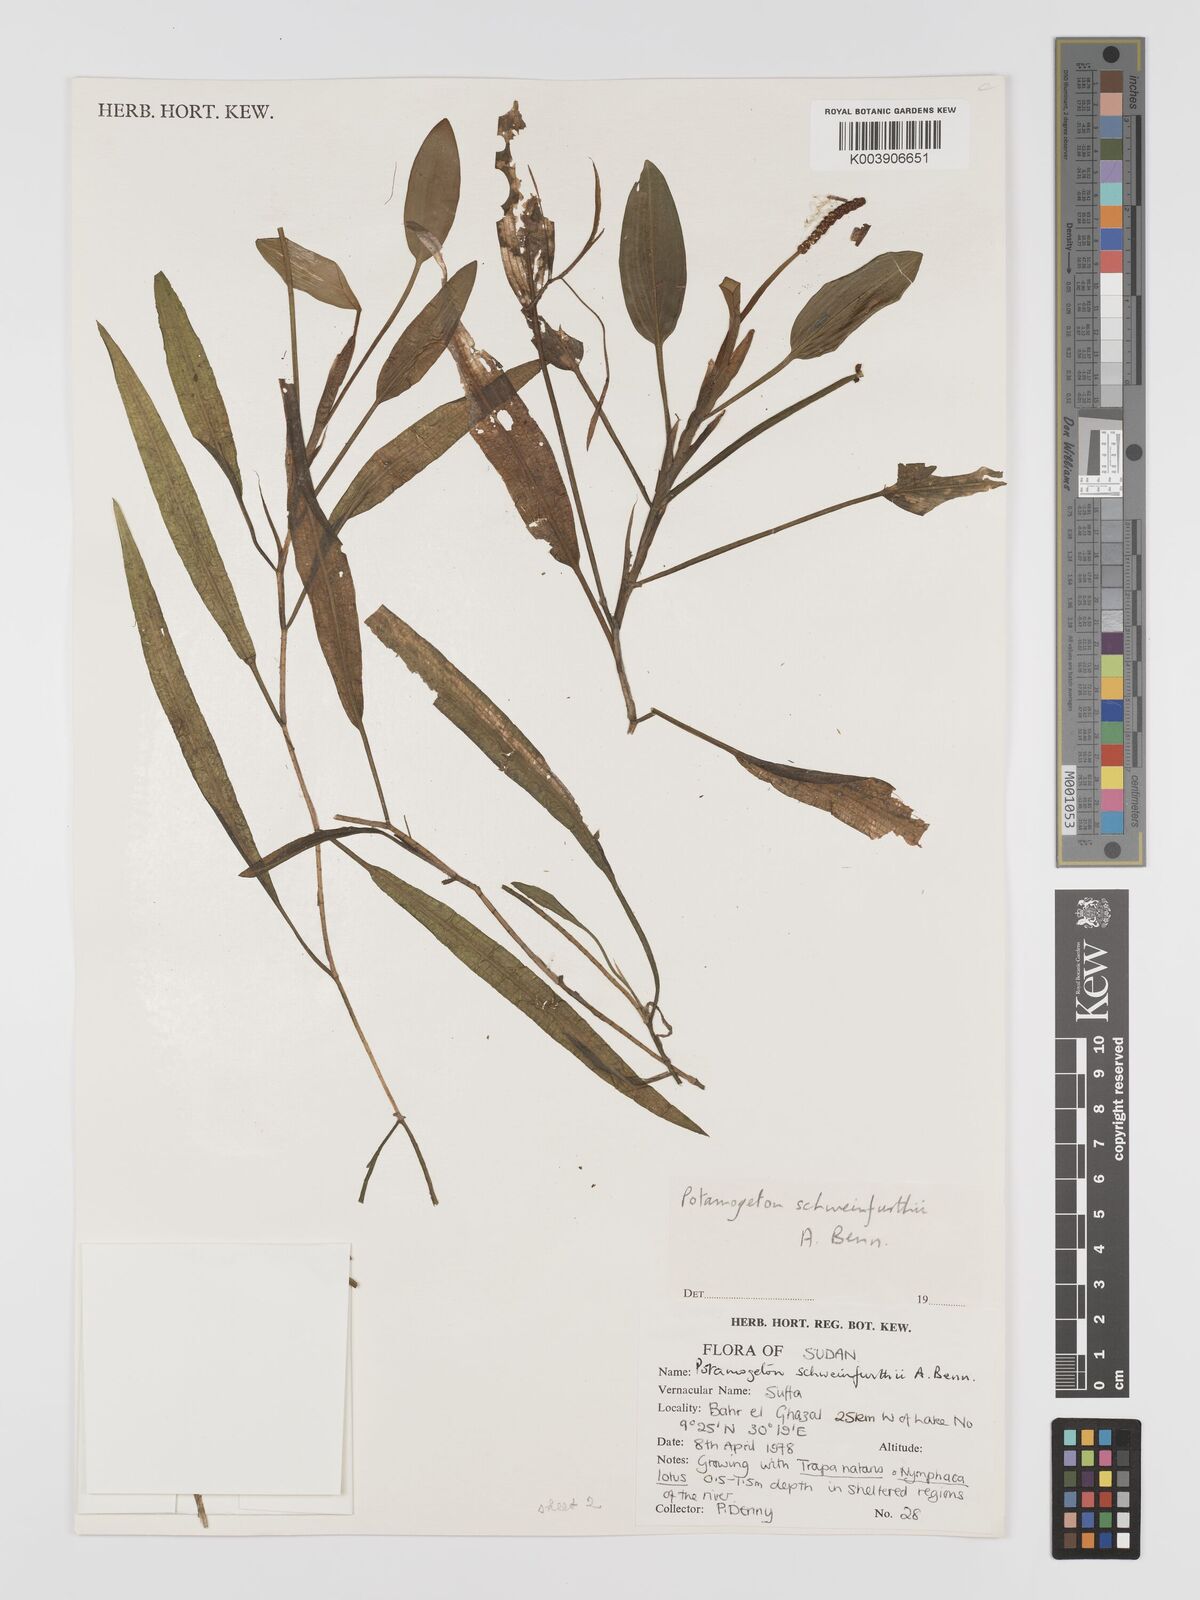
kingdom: Plantae
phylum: Tracheophyta
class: Liliopsida
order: Alismatales
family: Potamogetonaceae
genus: Potamogeton
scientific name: Potamogeton nodosus
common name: Loddon pondweed
